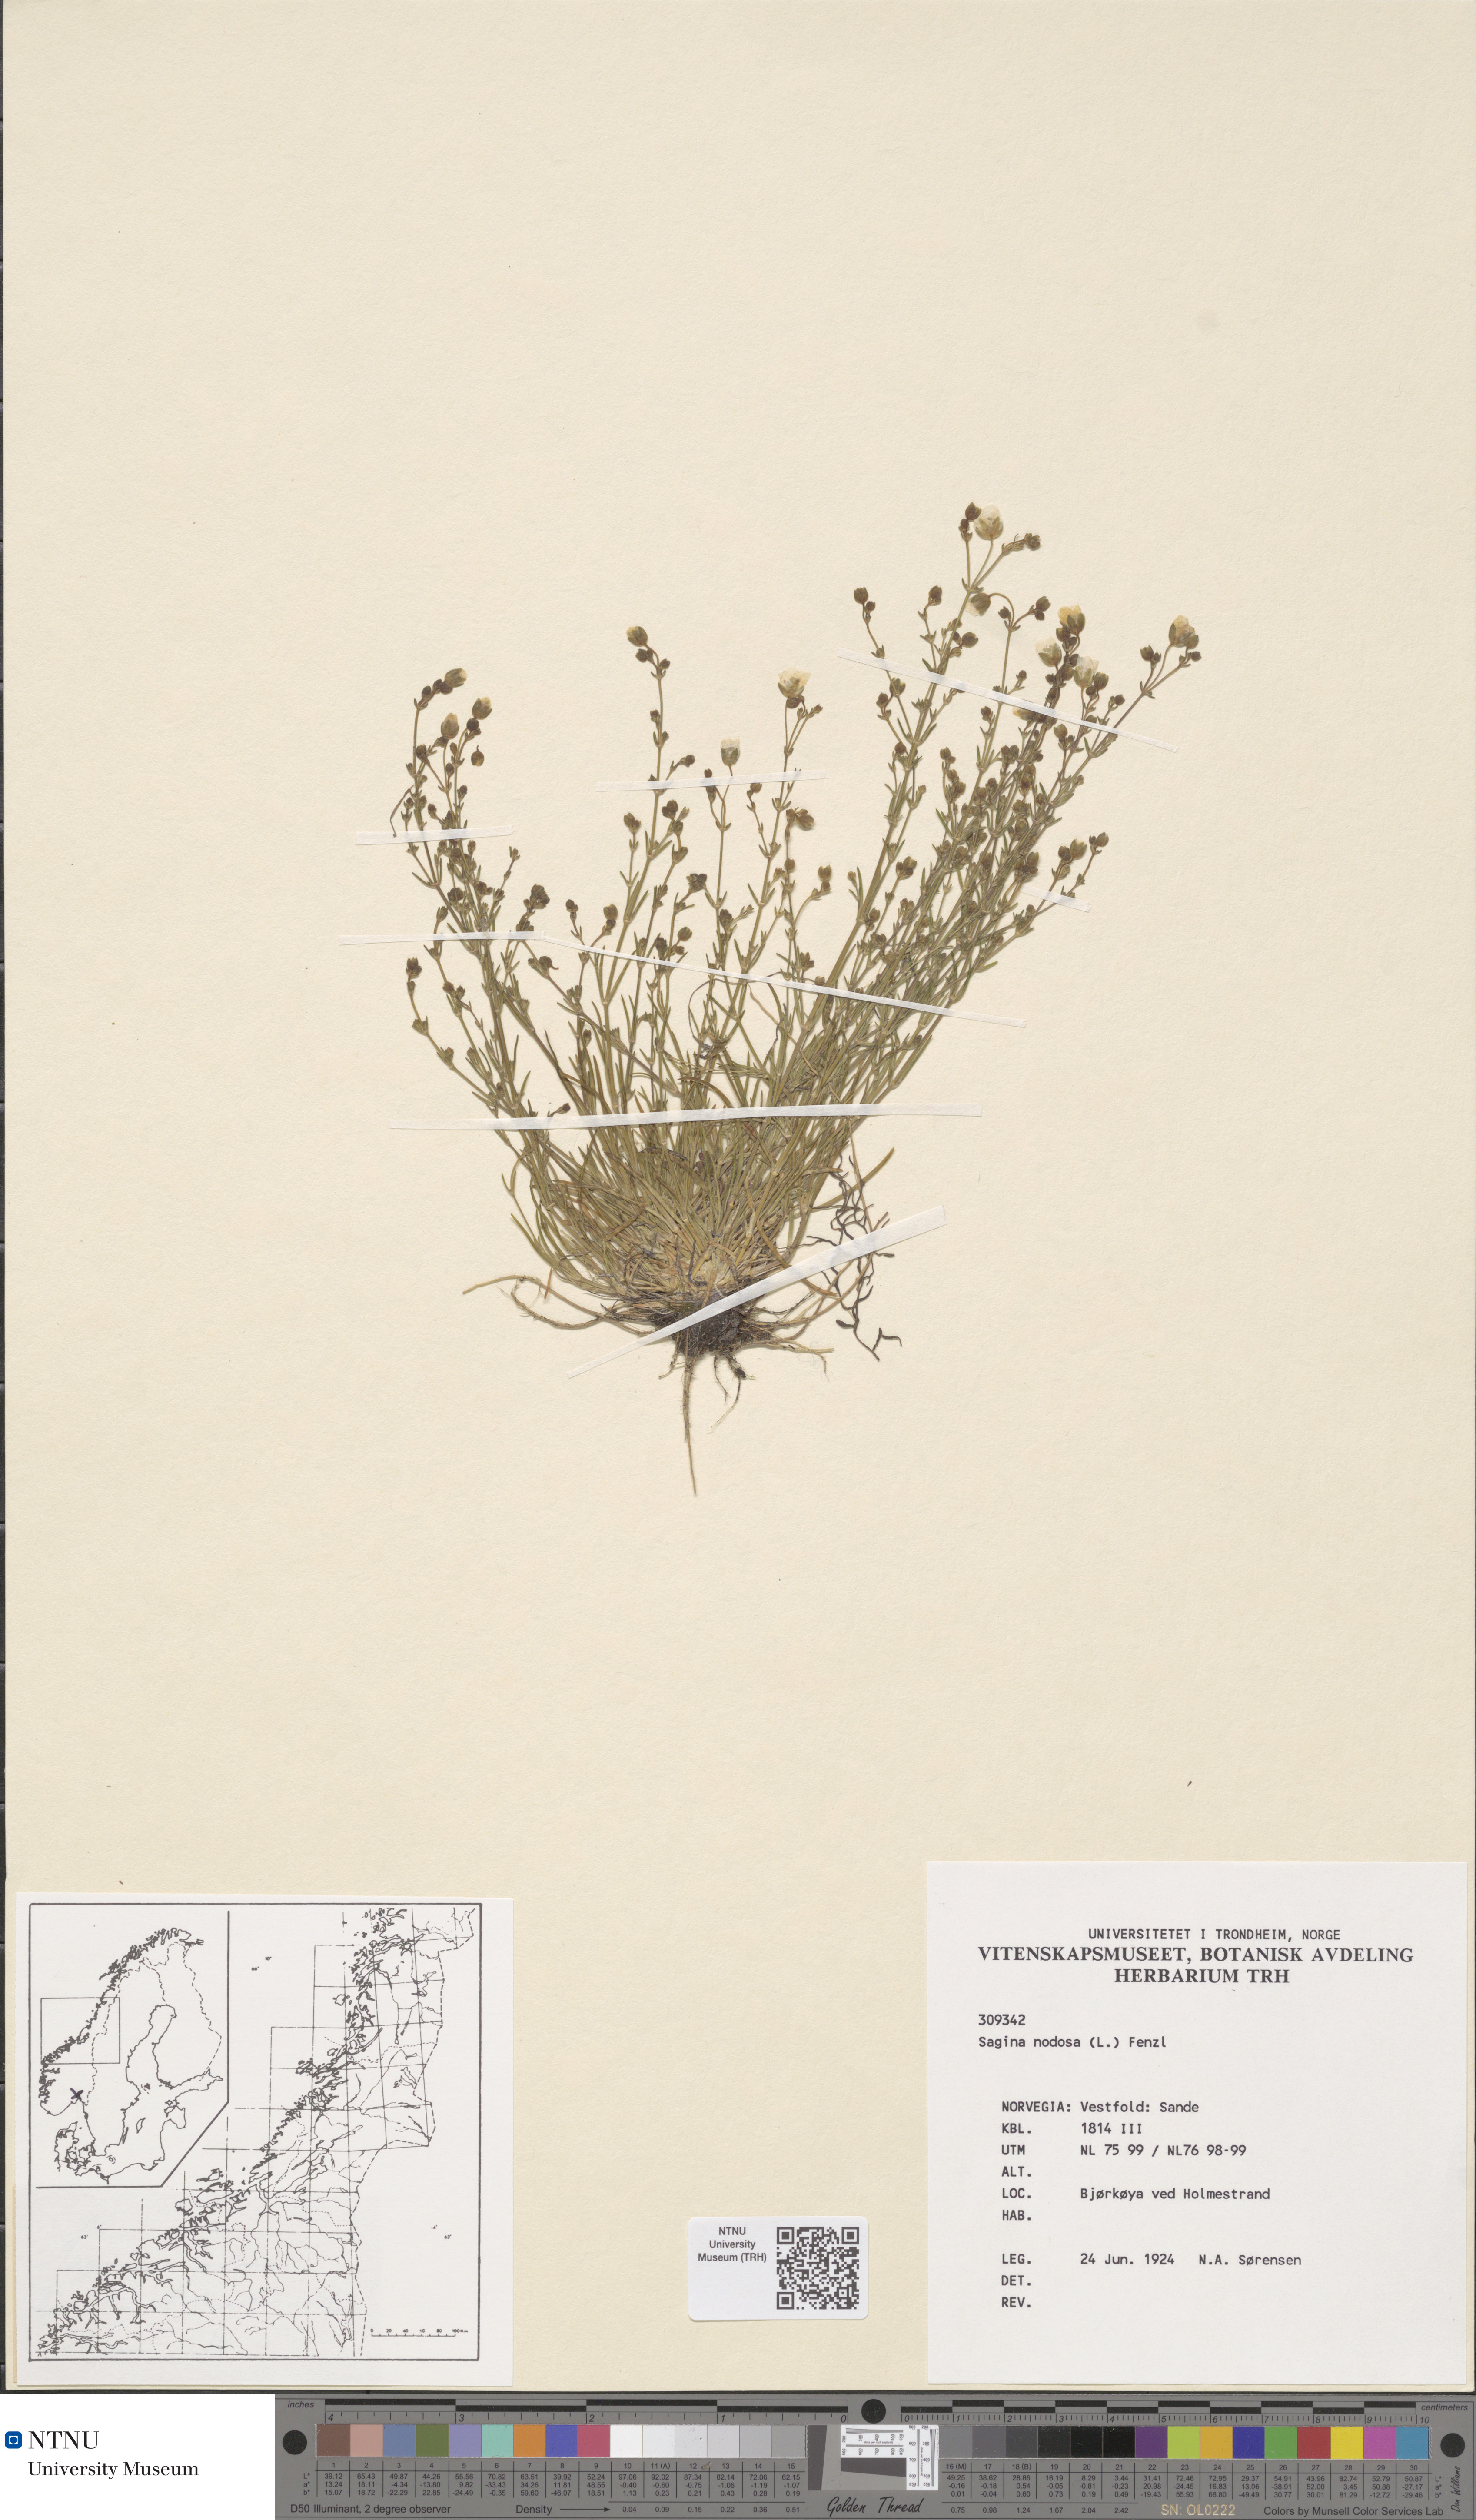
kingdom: Plantae
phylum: Tracheophyta
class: Magnoliopsida
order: Caryophyllales
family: Caryophyllaceae
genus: Sagina
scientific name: Sagina nodosa
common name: Knotted pearlwort
